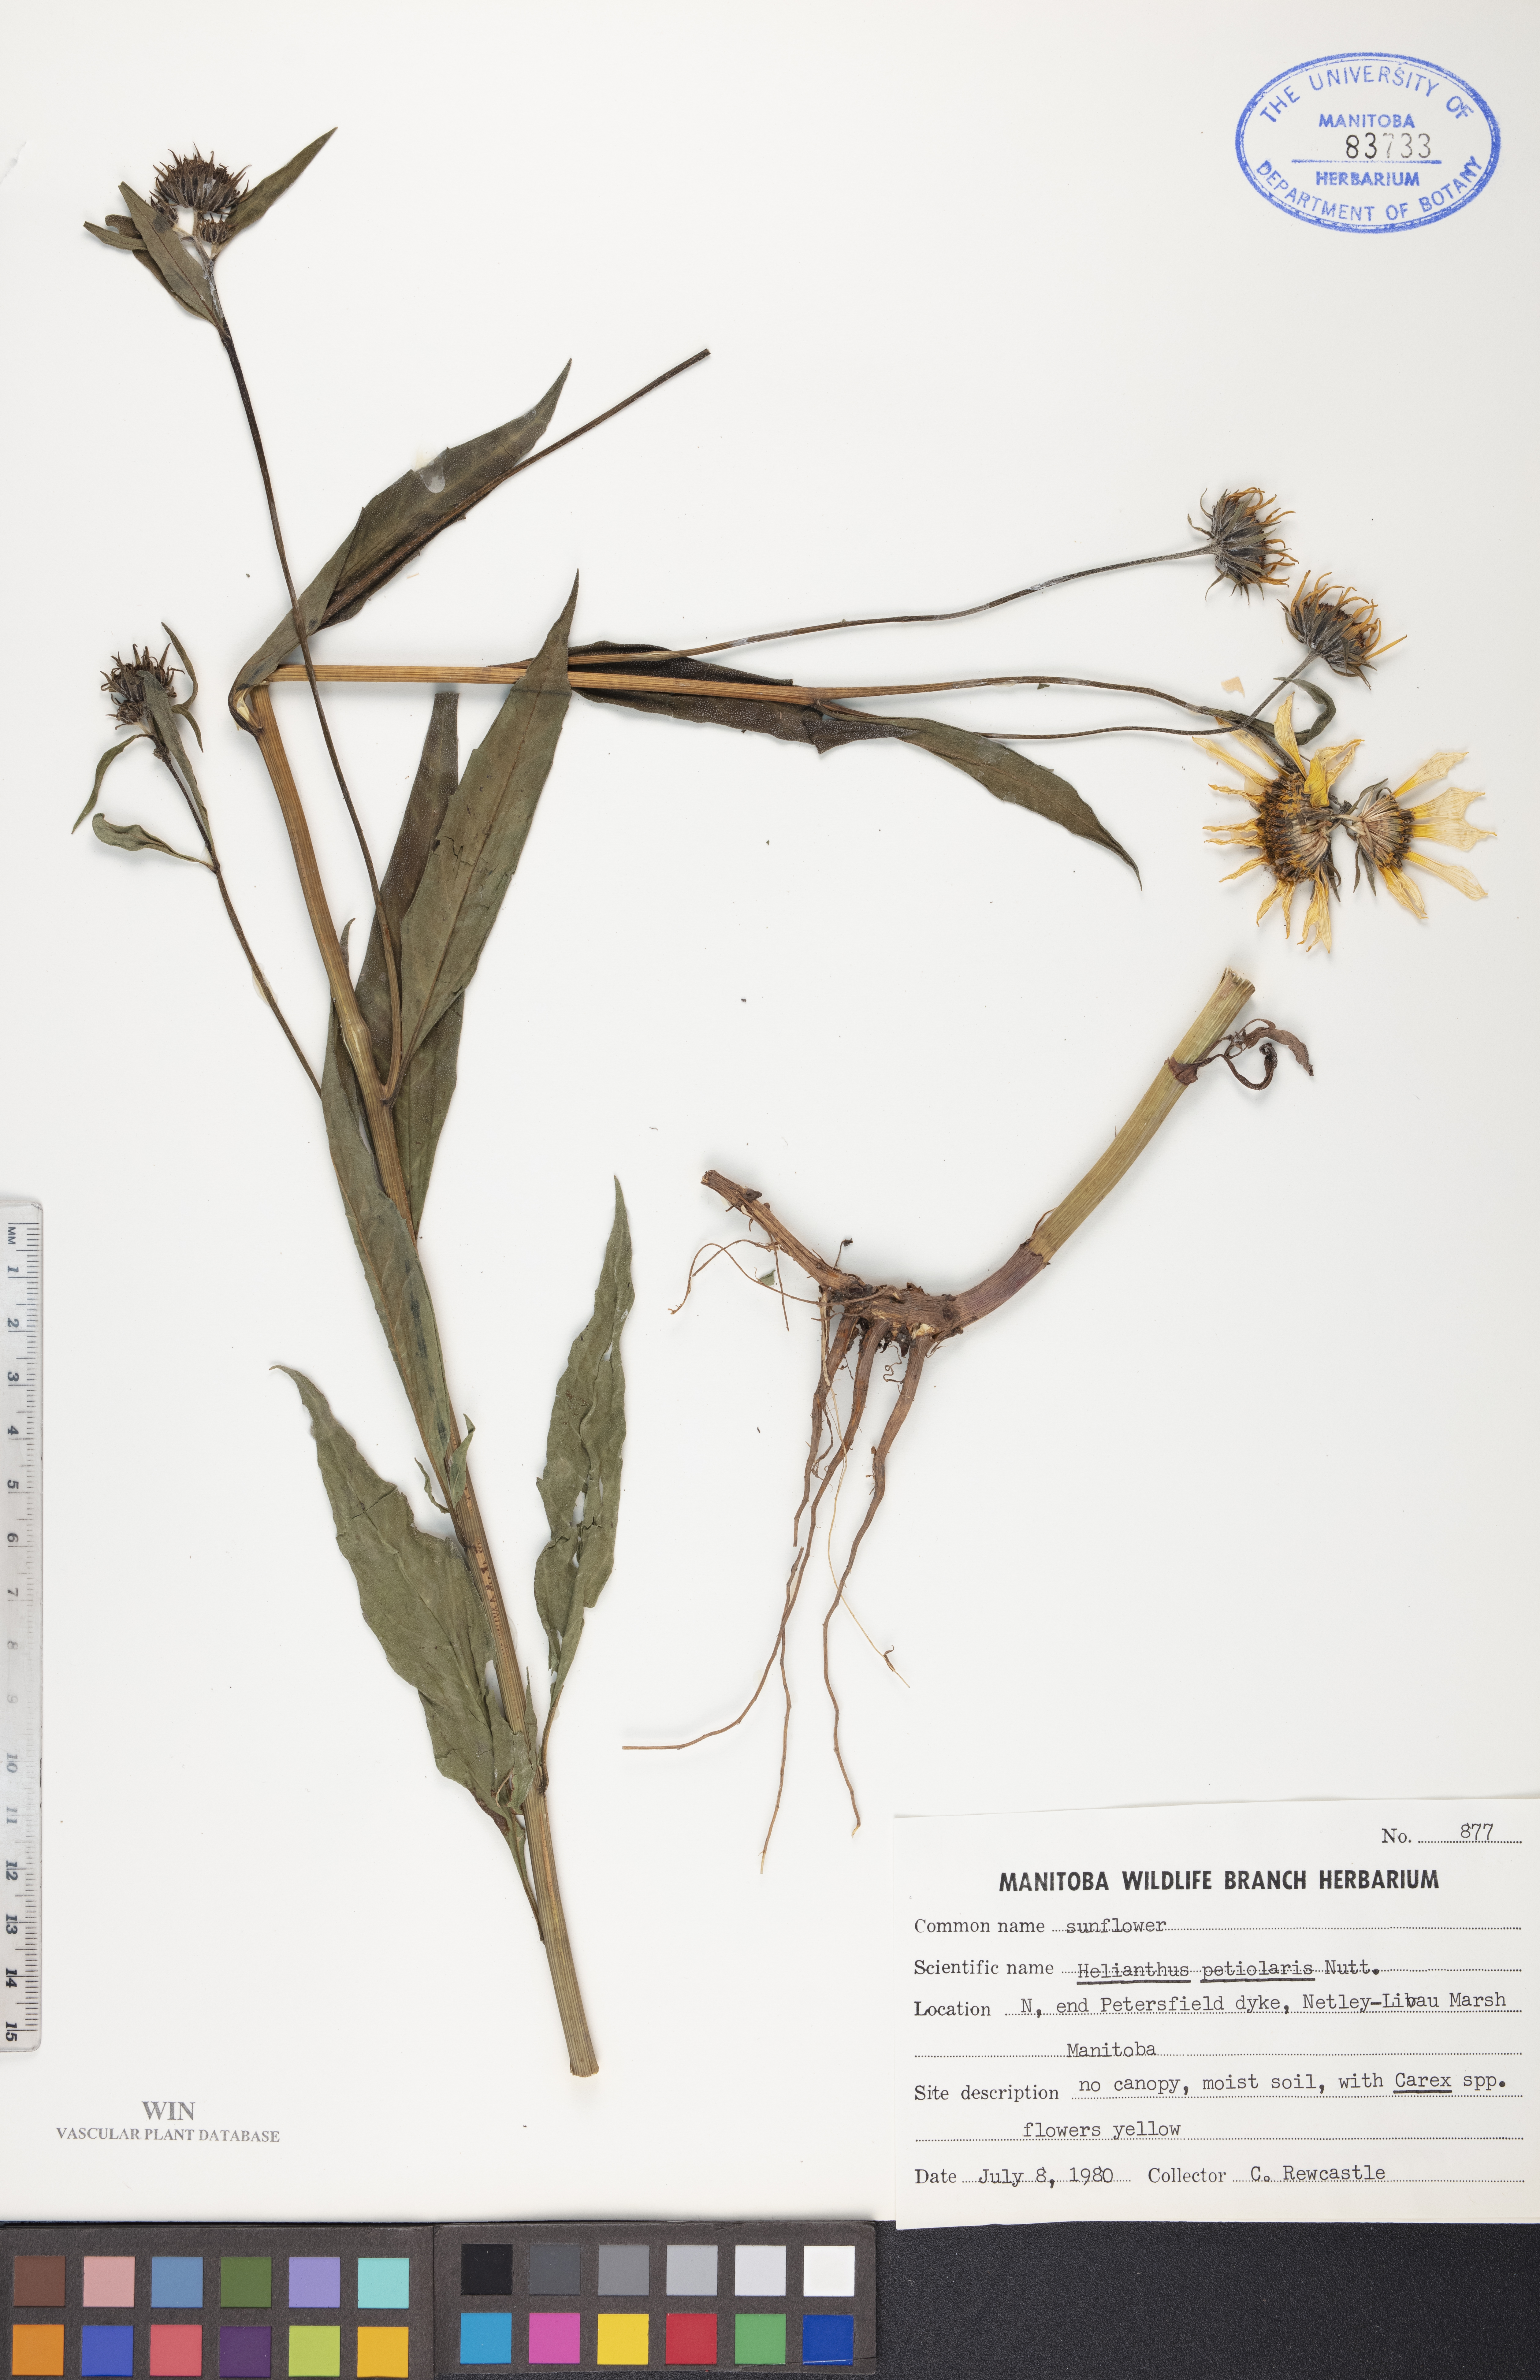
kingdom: Plantae
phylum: Tracheophyta
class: Magnoliopsida
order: Asterales
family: Asteraceae
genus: Helianthus
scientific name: Helianthus petiolaris
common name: Lesser sunflower
